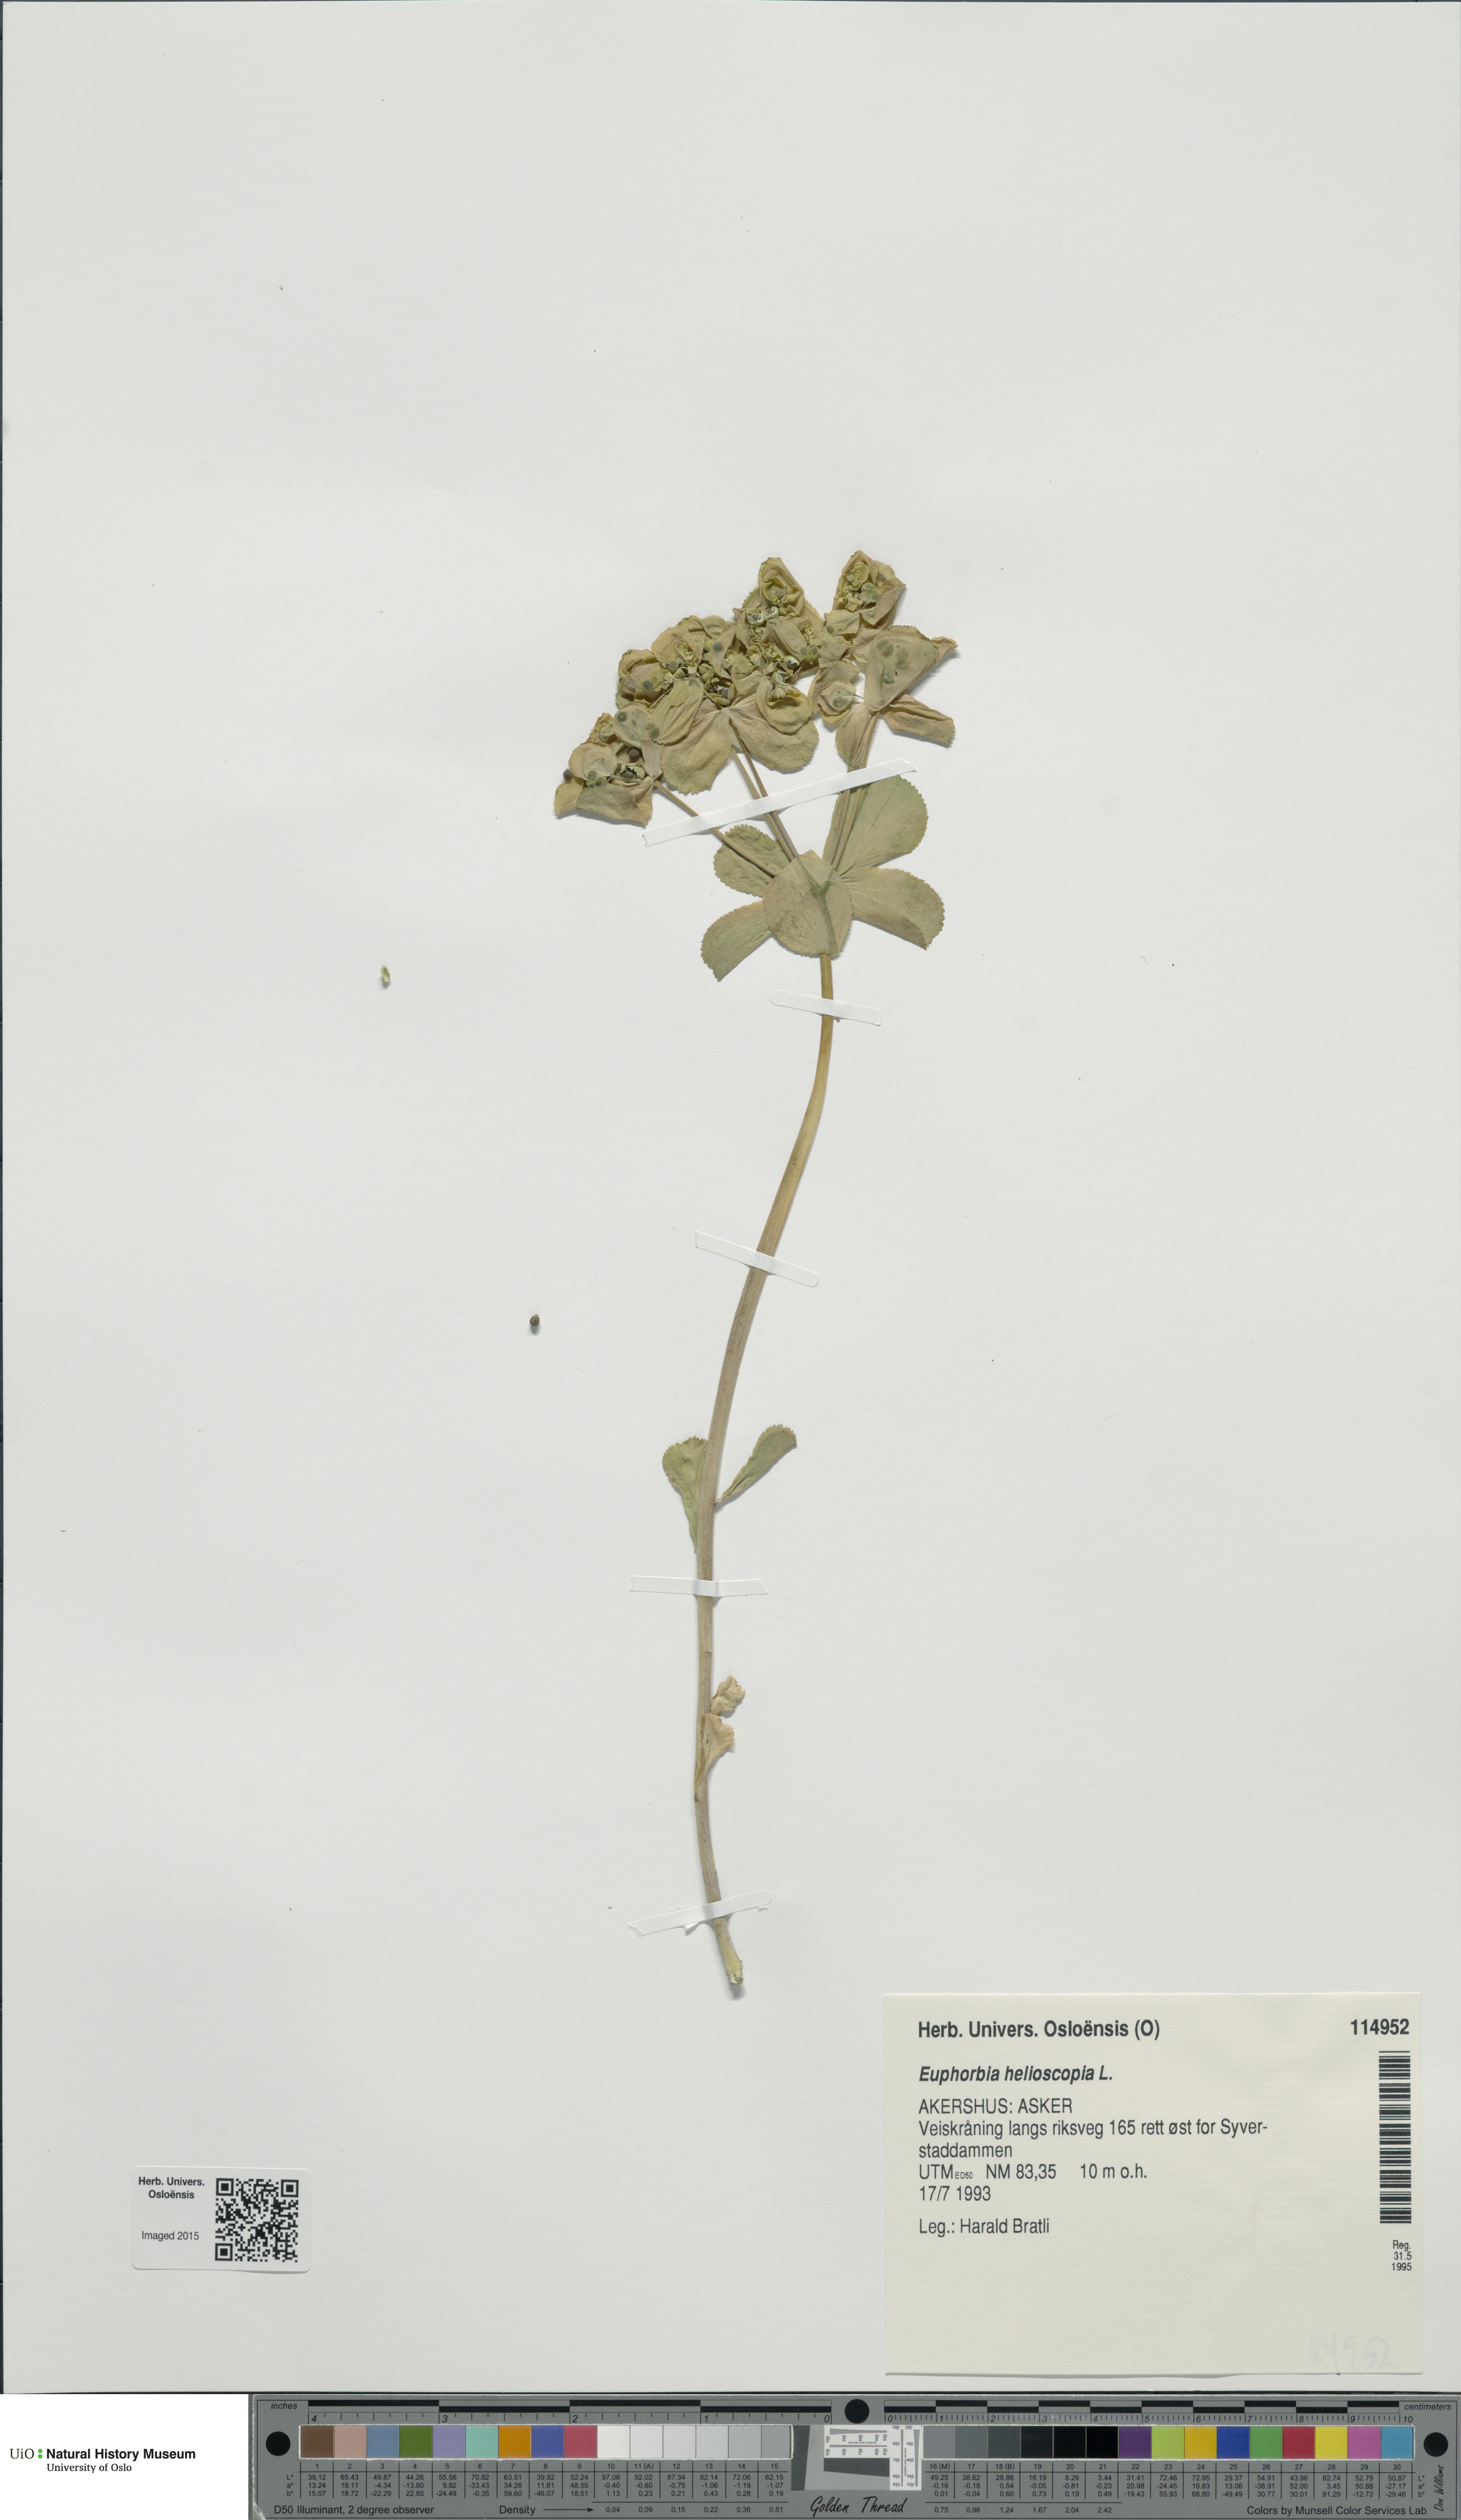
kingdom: Plantae
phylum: Tracheophyta
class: Magnoliopsida
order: Malpighiales
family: Euphorbiaceae
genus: Euphorbia
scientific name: Euphorbia helioscopia
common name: Sun spurge
